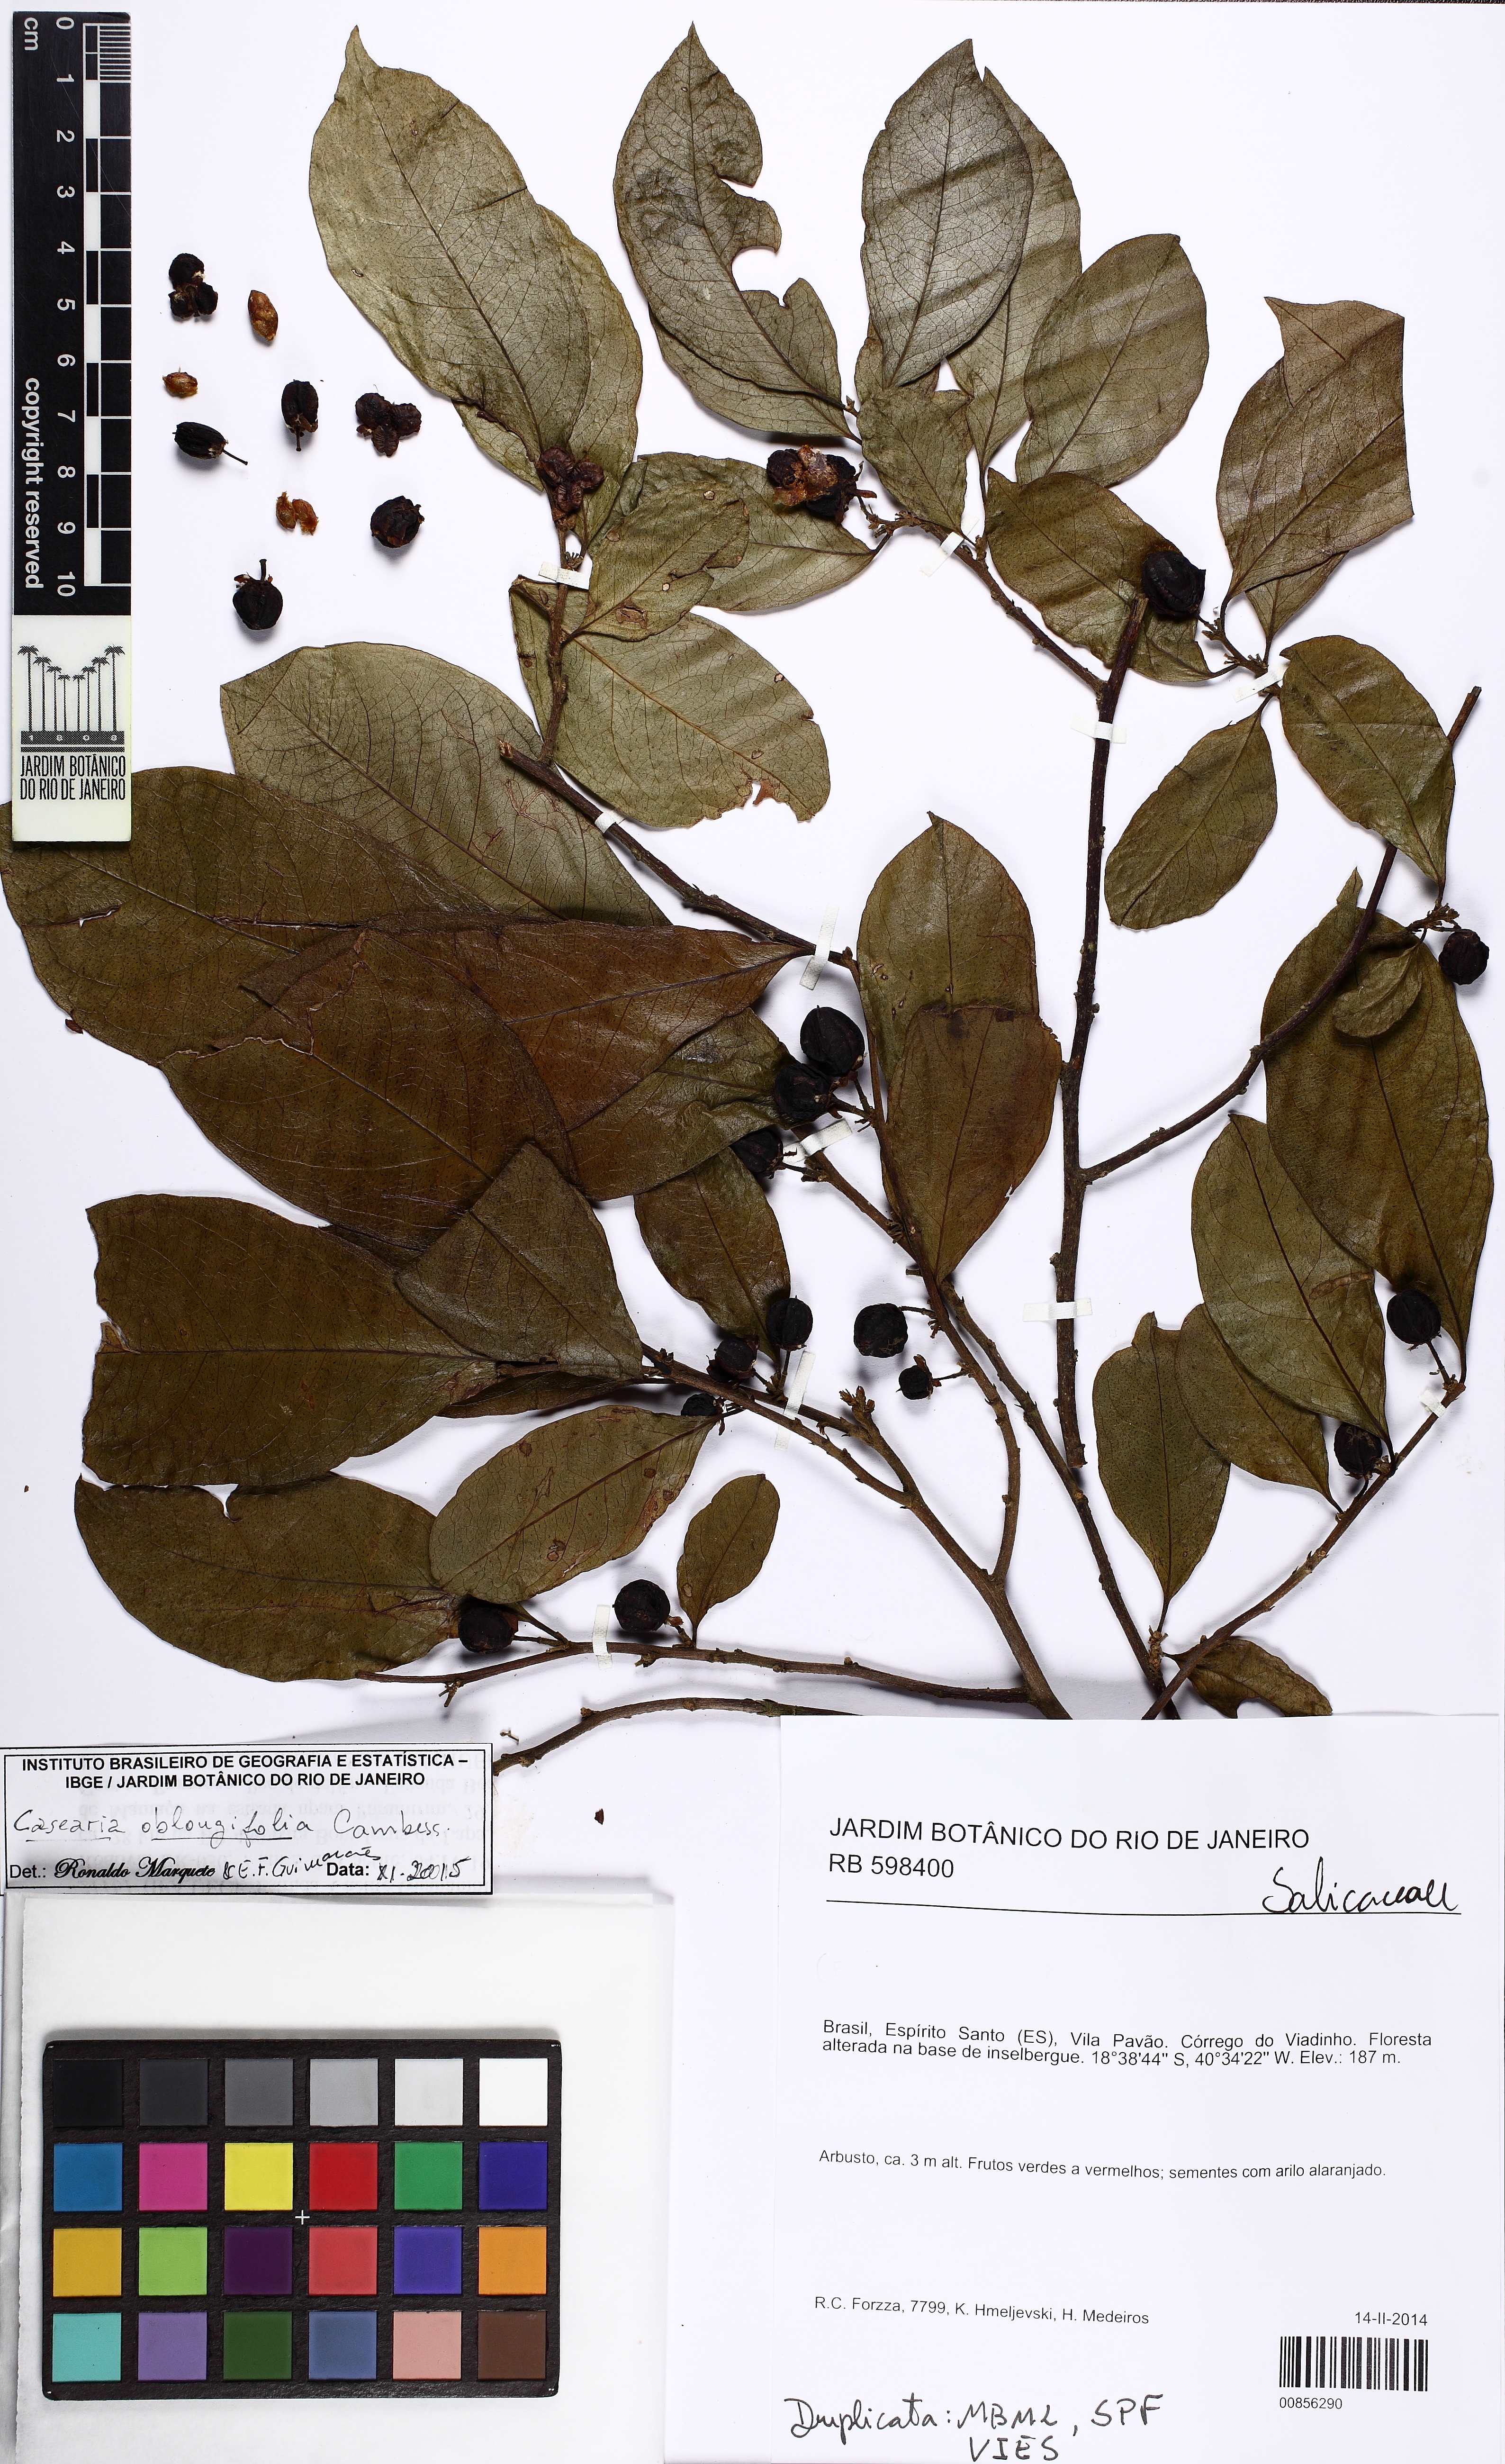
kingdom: Plantae
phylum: Tracheophyta
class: Magnoliopsida
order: Malpighiales
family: Salicaceae
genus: Casearia
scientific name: Casearia oblongifolia
